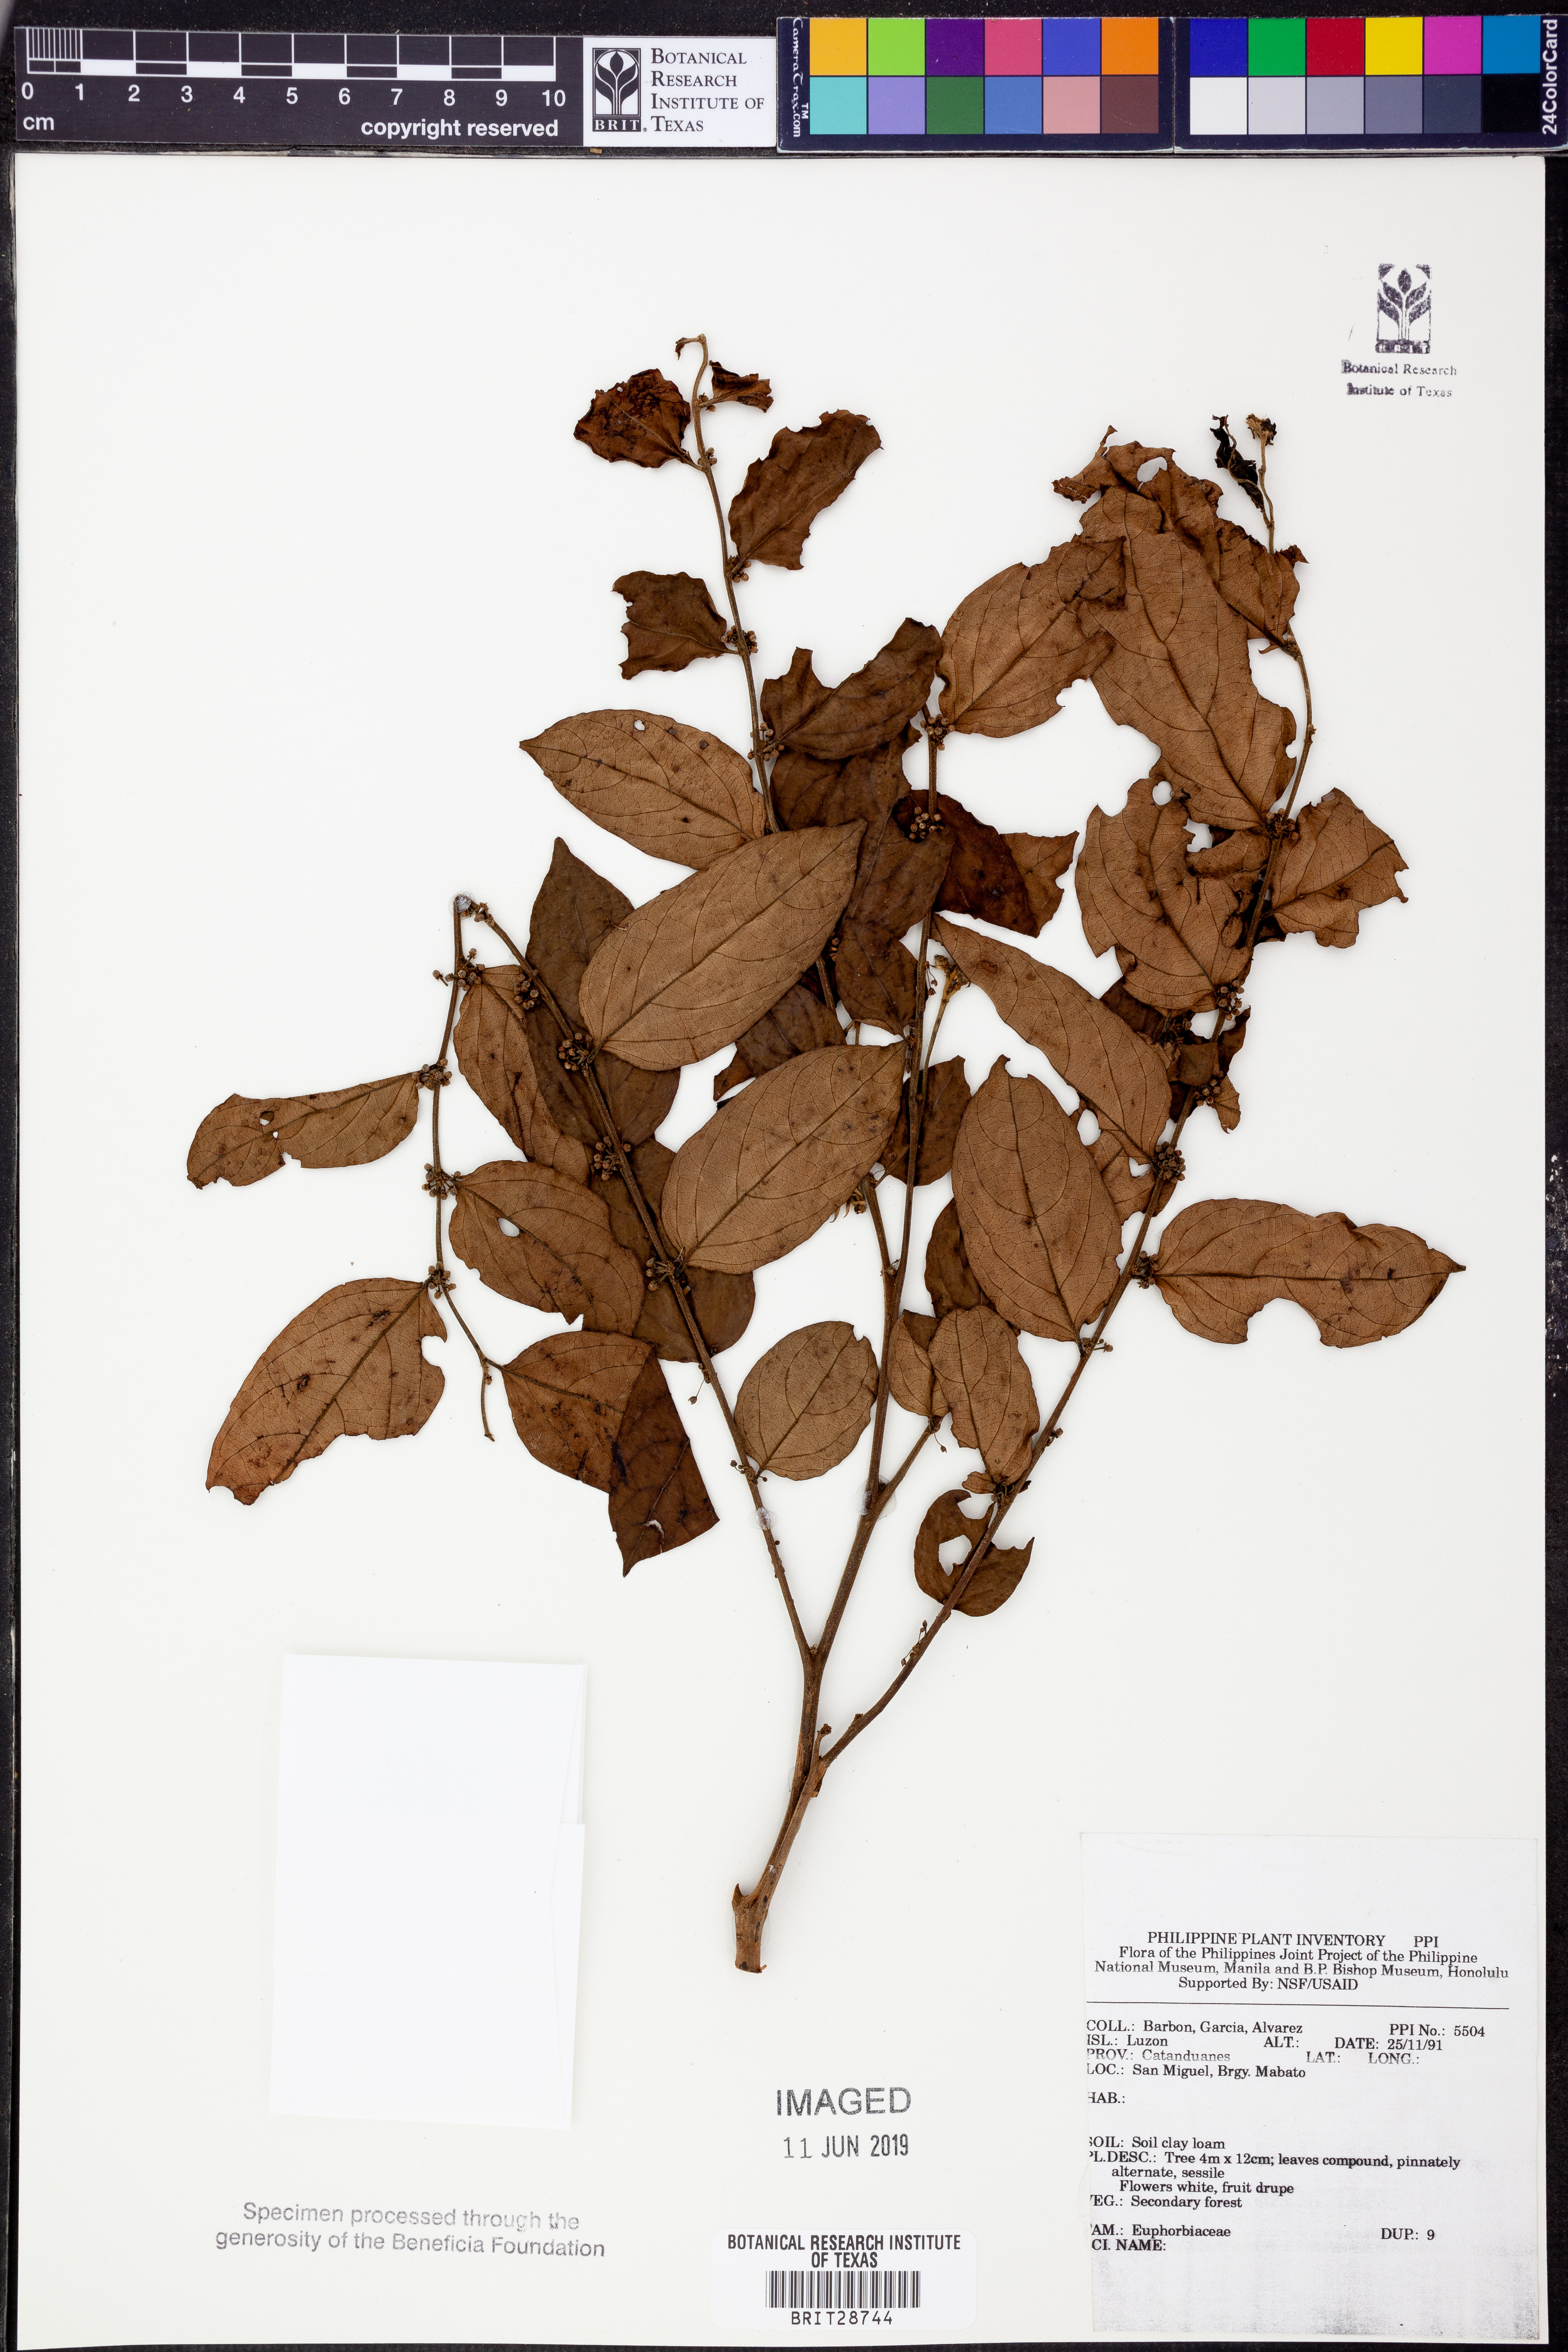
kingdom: Plantae
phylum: Tracheophyta
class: Magnoliopsida
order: Malpighiales
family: Euphorbiaceae
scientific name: Euphorbiaceae
